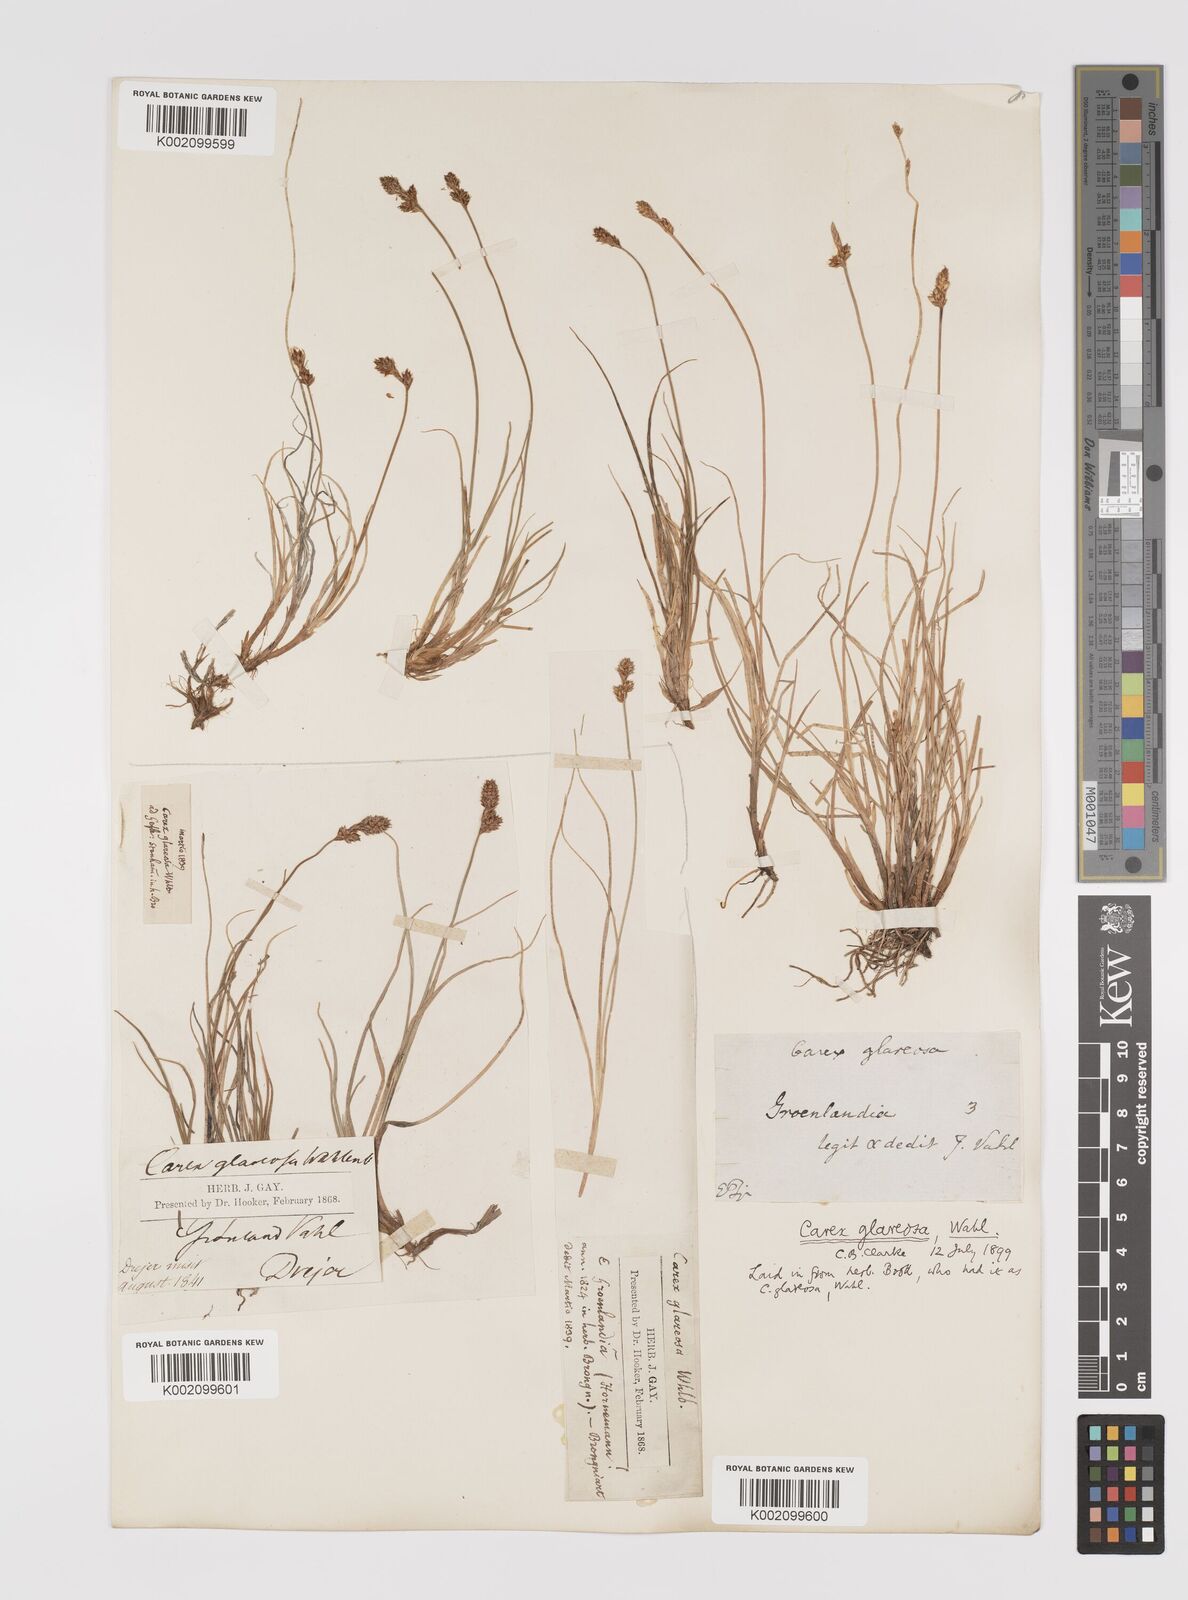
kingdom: Plantae
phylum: Tracheophyta
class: Liliopsida
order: Poales
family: Cyperaceae
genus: Carex
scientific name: Carex glareosa
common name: Clustered sedge
